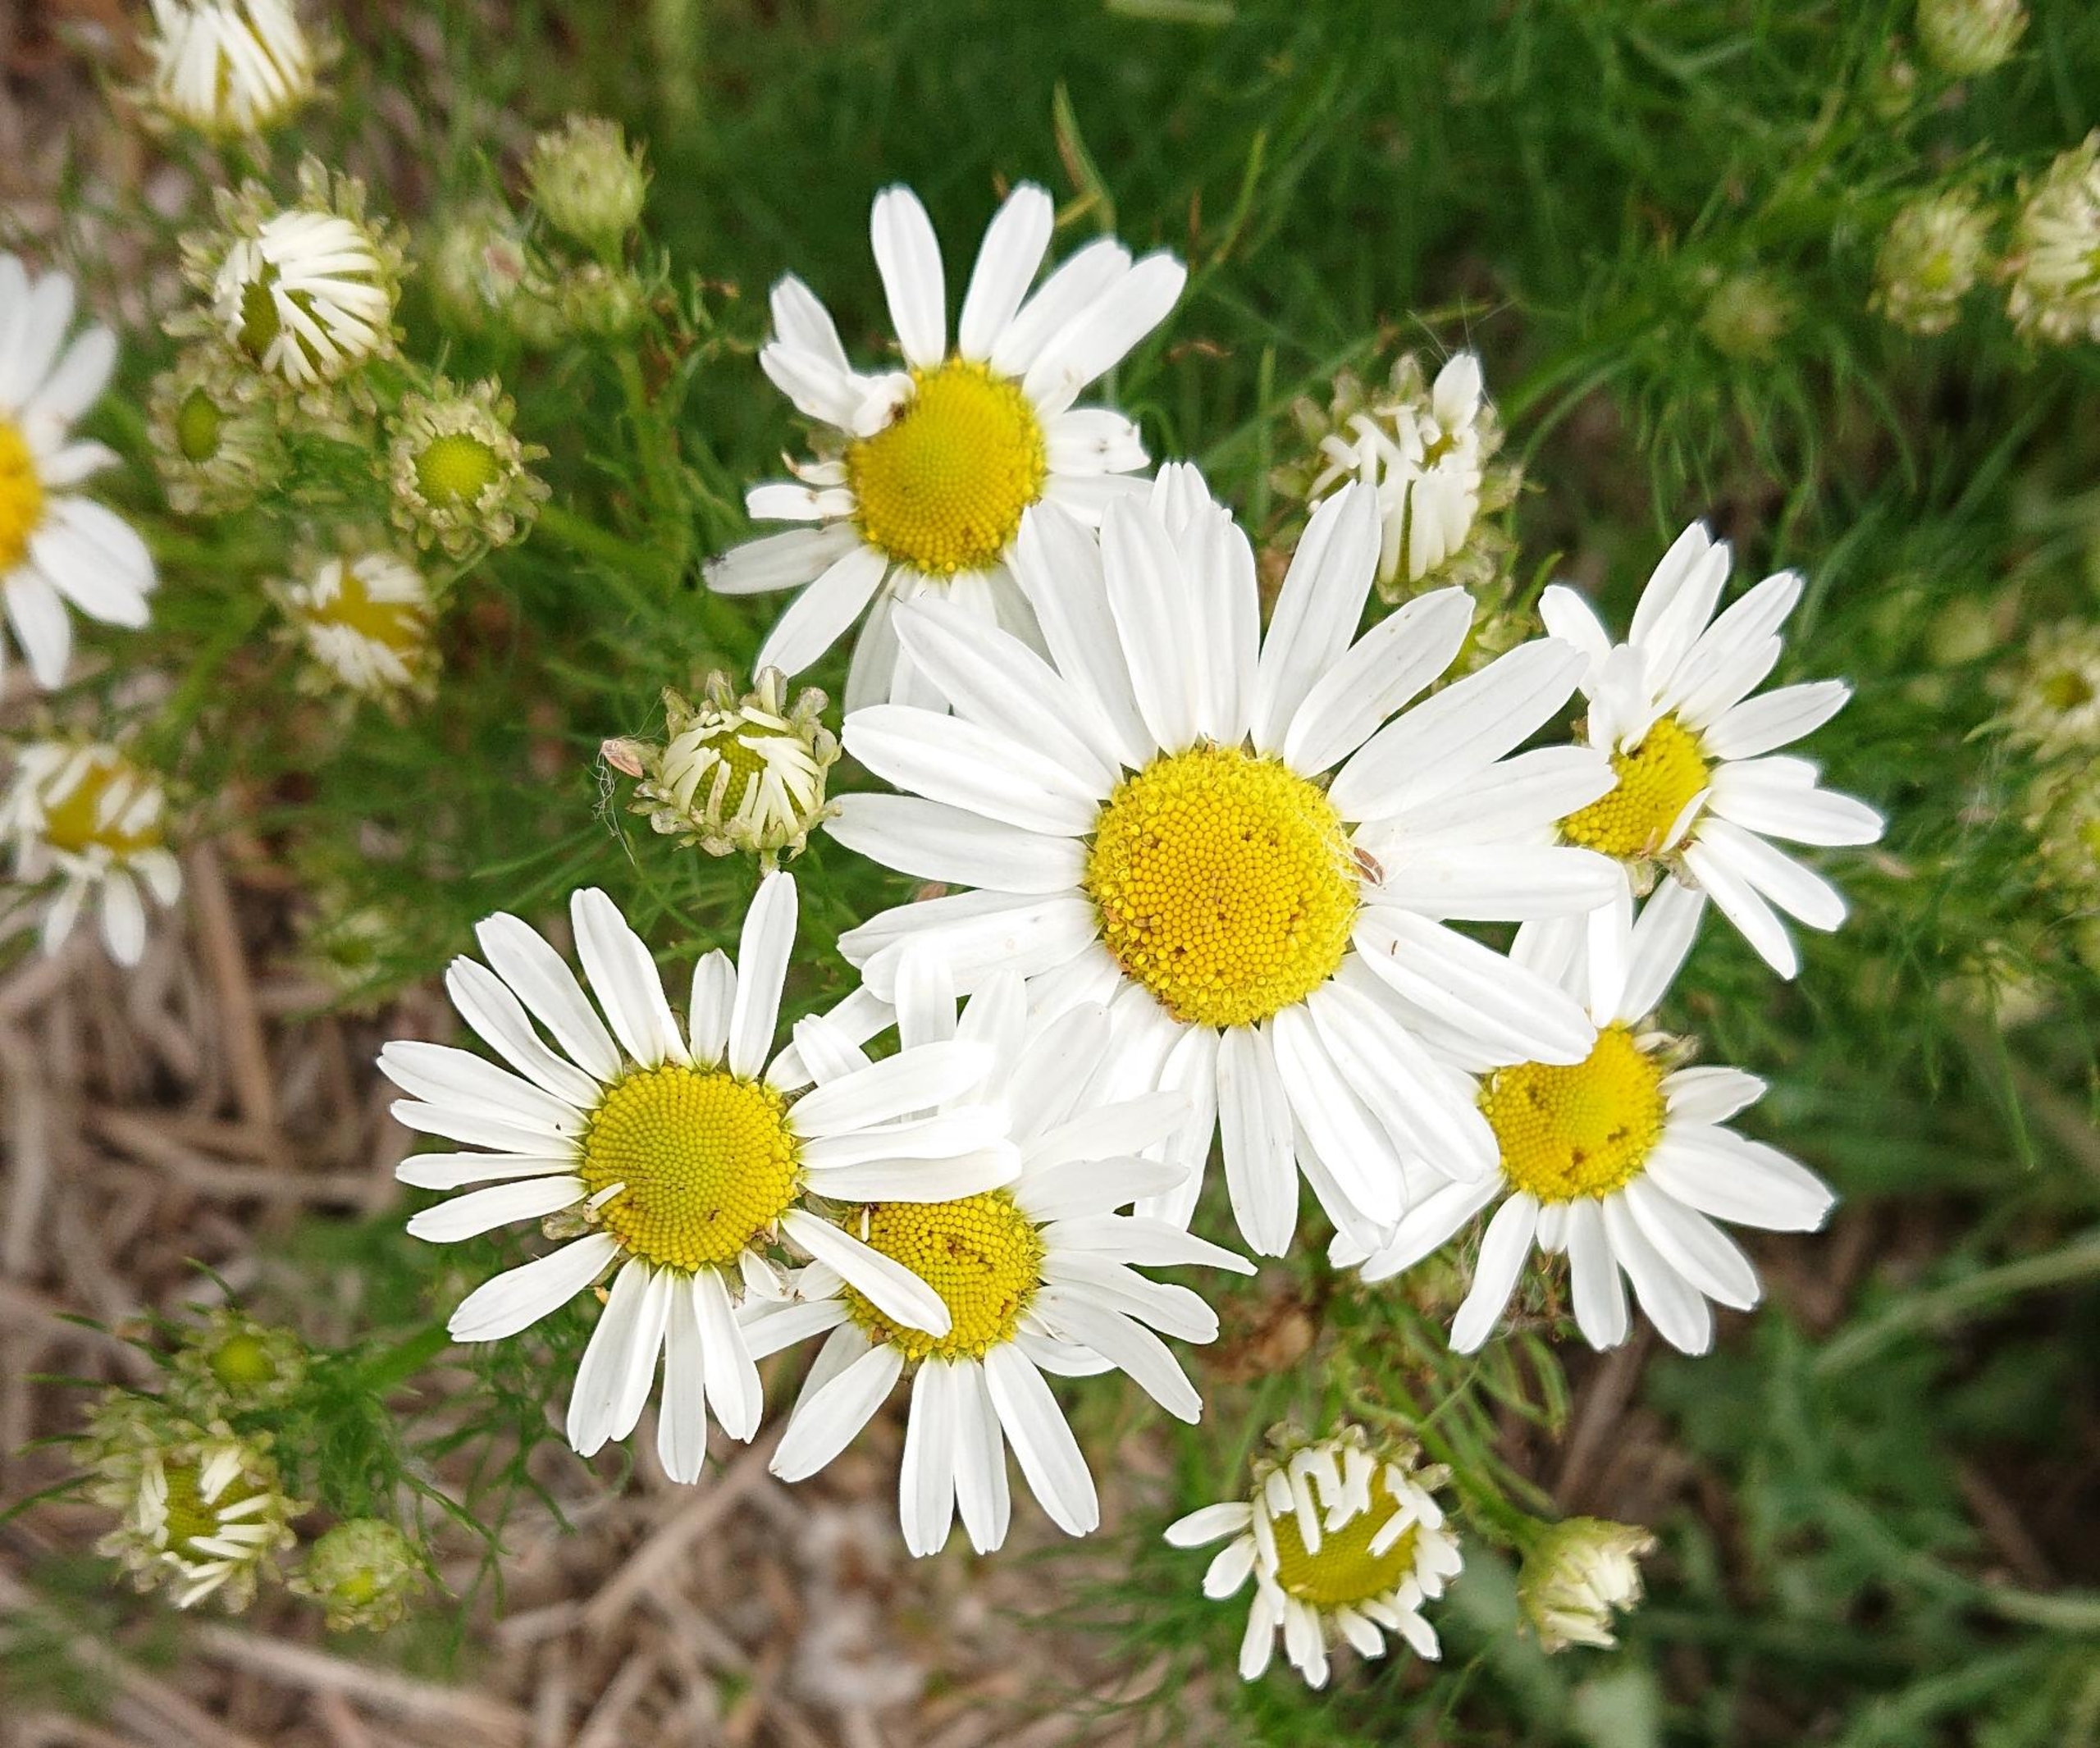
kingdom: Plantae
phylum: Tracheophyta
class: Magnoliopsida
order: Asterales
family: Asteraceae
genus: Tripleurospermum
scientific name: Tripleurospermum inodorum
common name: Lugtløs kamille
